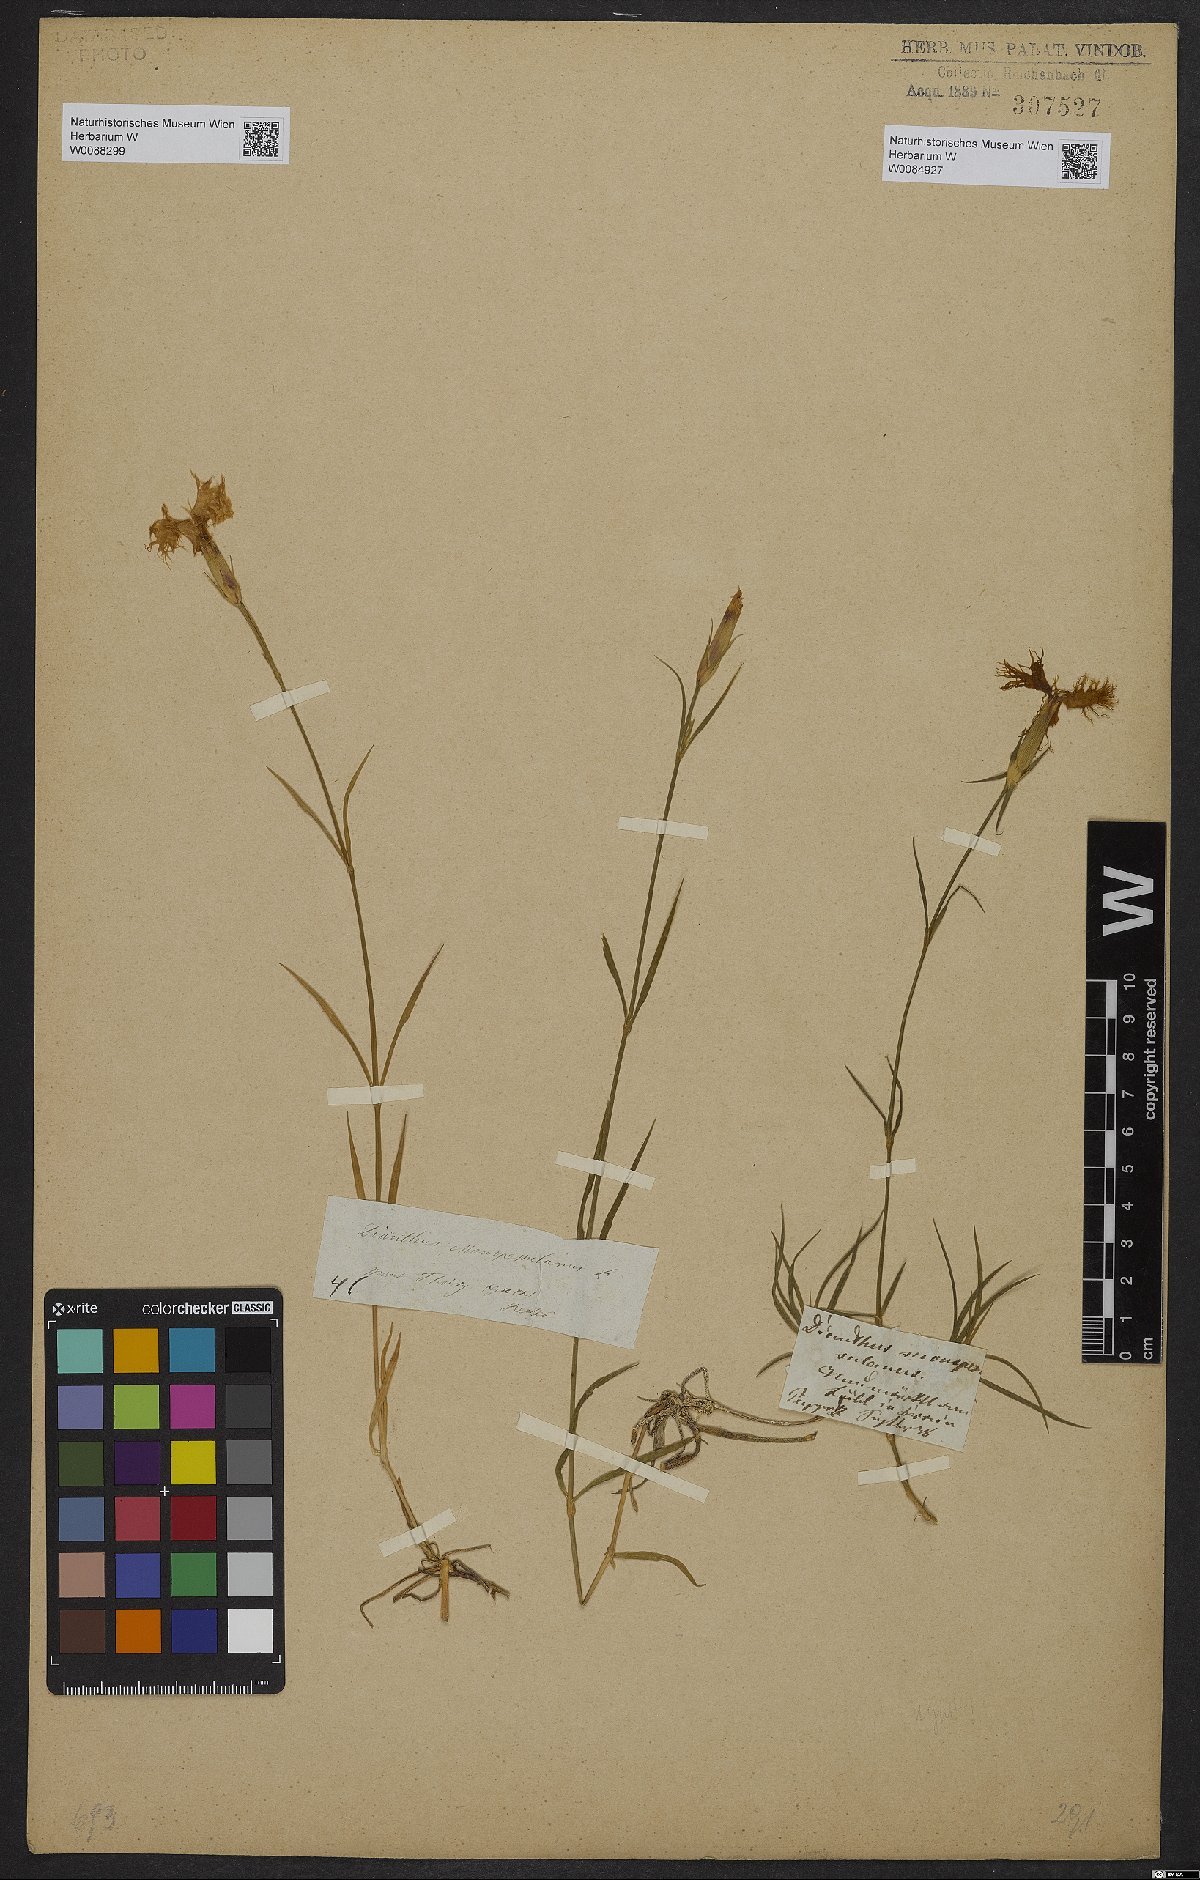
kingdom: Plantae
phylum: Tracheophyta
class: Magnoliopsida
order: Caryophyllales
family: Caryophyllaceae
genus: Dianthus
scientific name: Dianthus hyssopifolius
